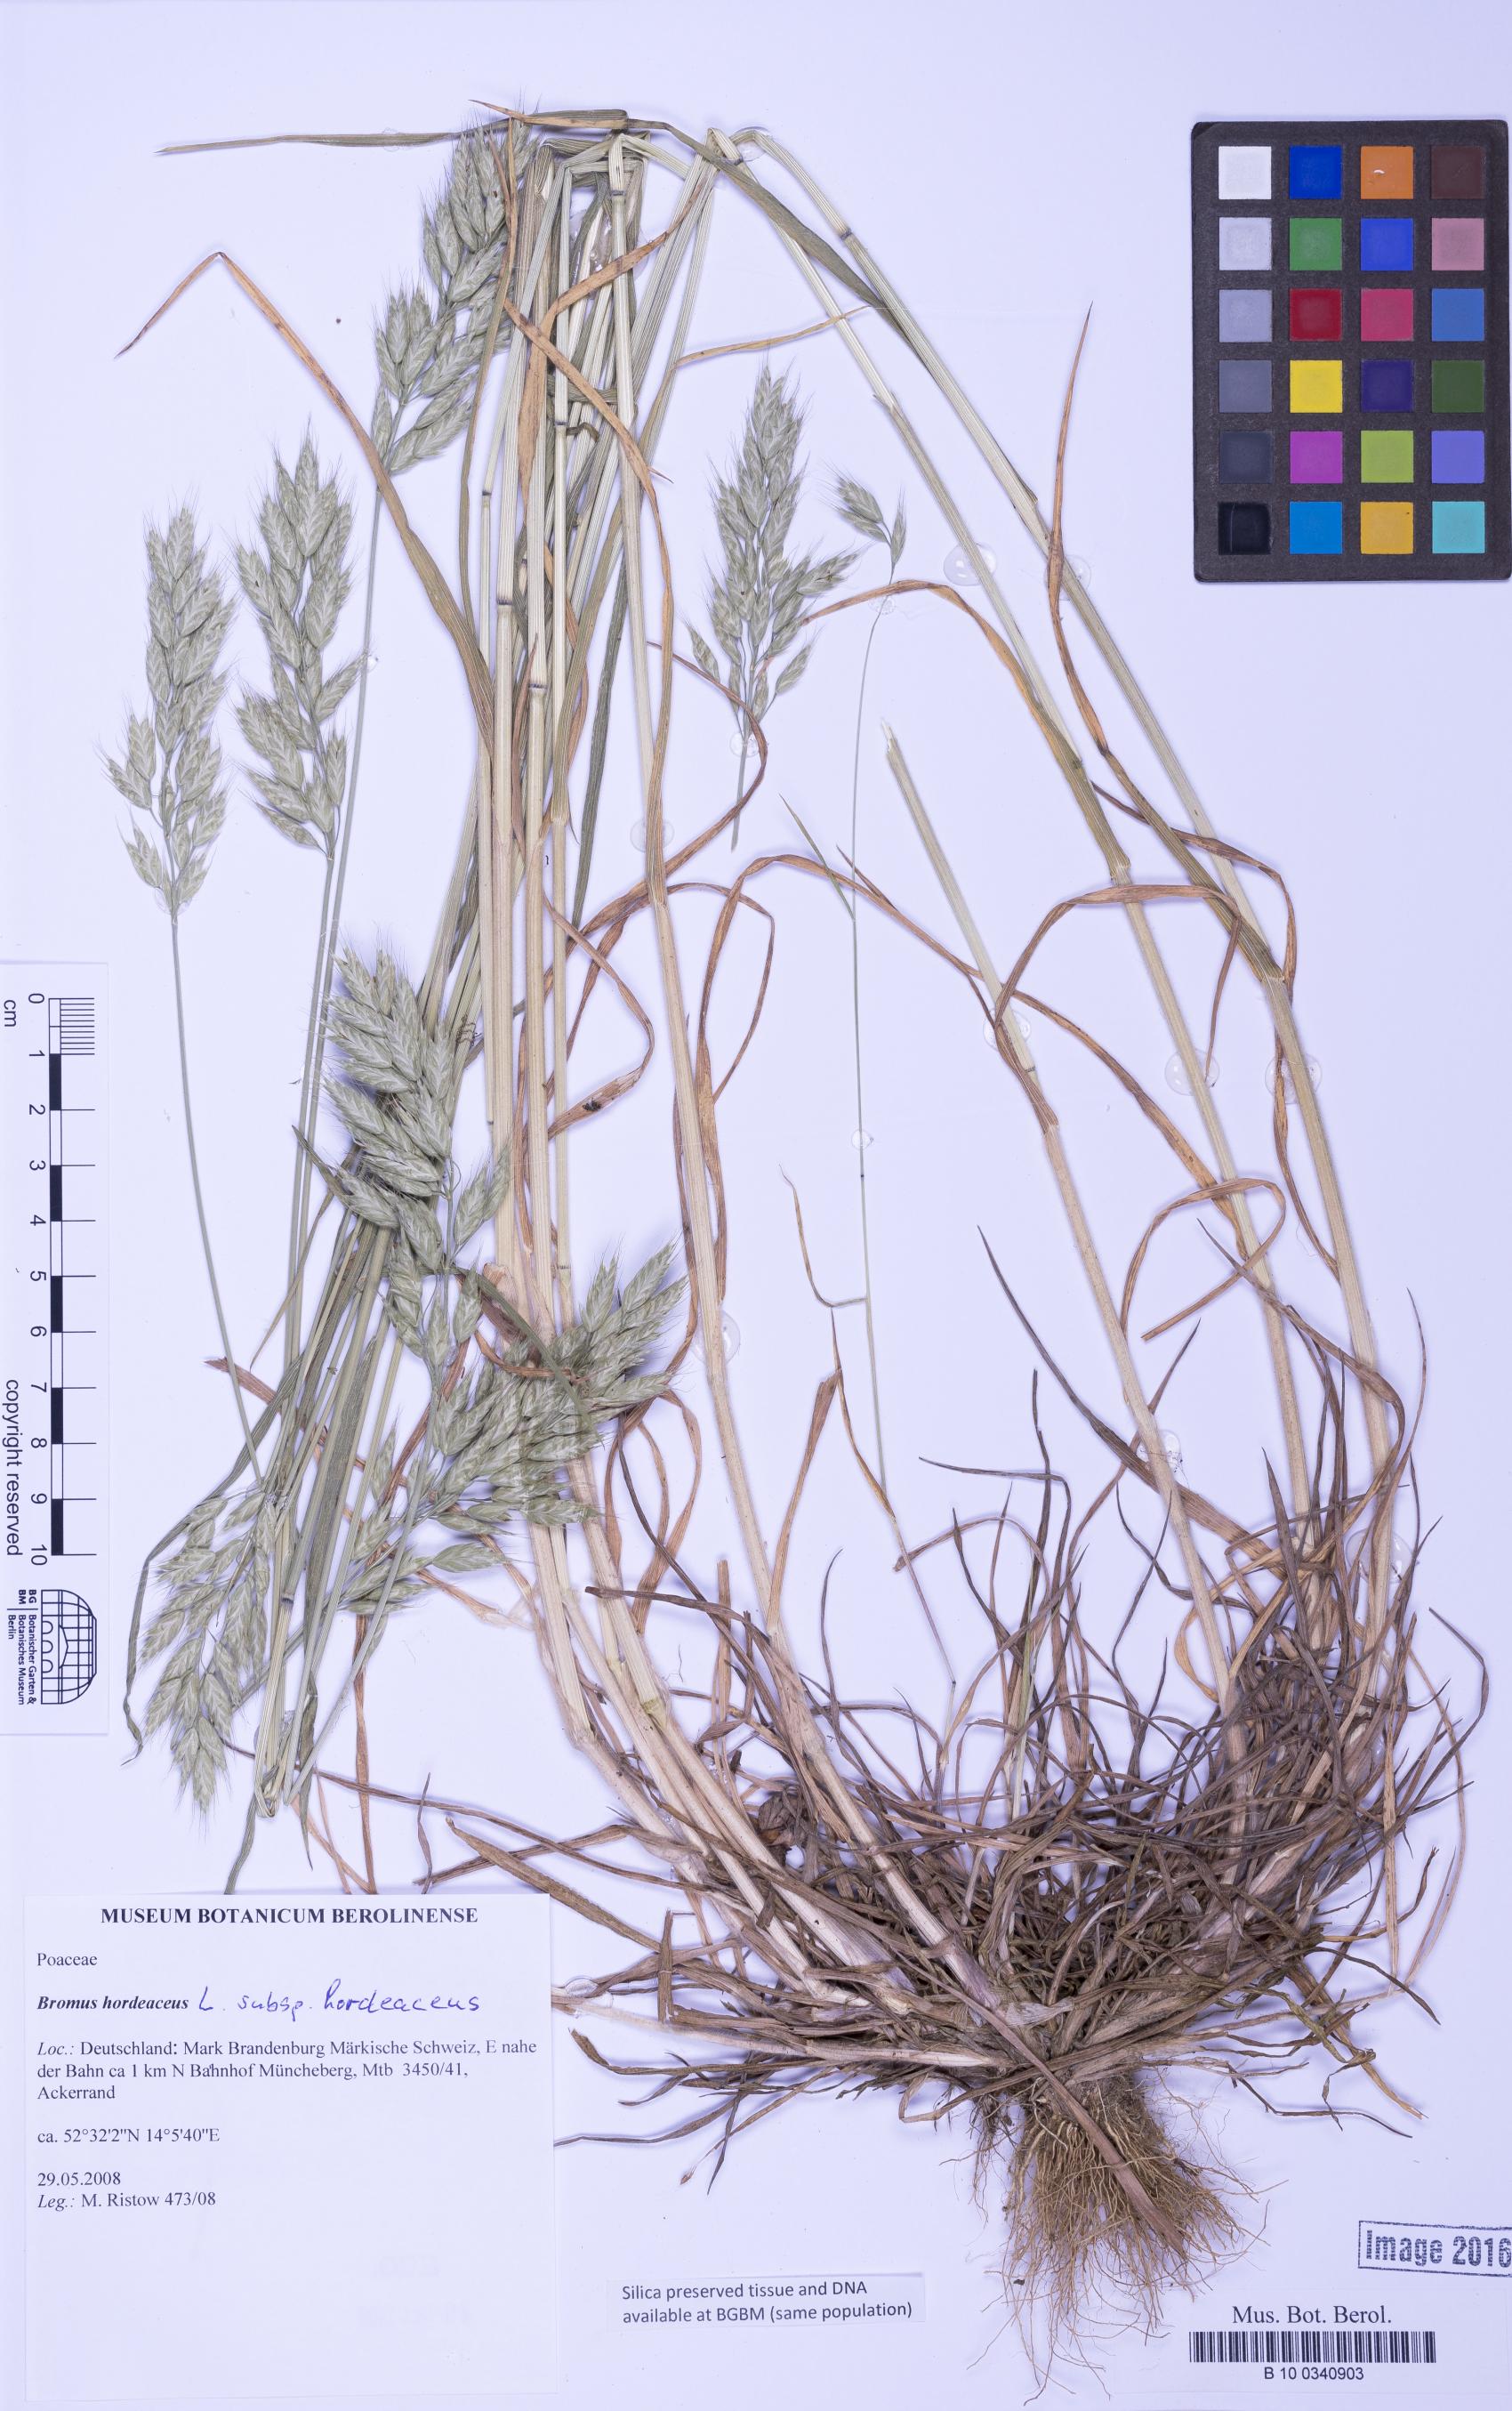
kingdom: Plantae
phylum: Tracheophyta
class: Liliopsida
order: Poales
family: Poaceae
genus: Bromus
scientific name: Bromus hordeaceus
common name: Soft brome
